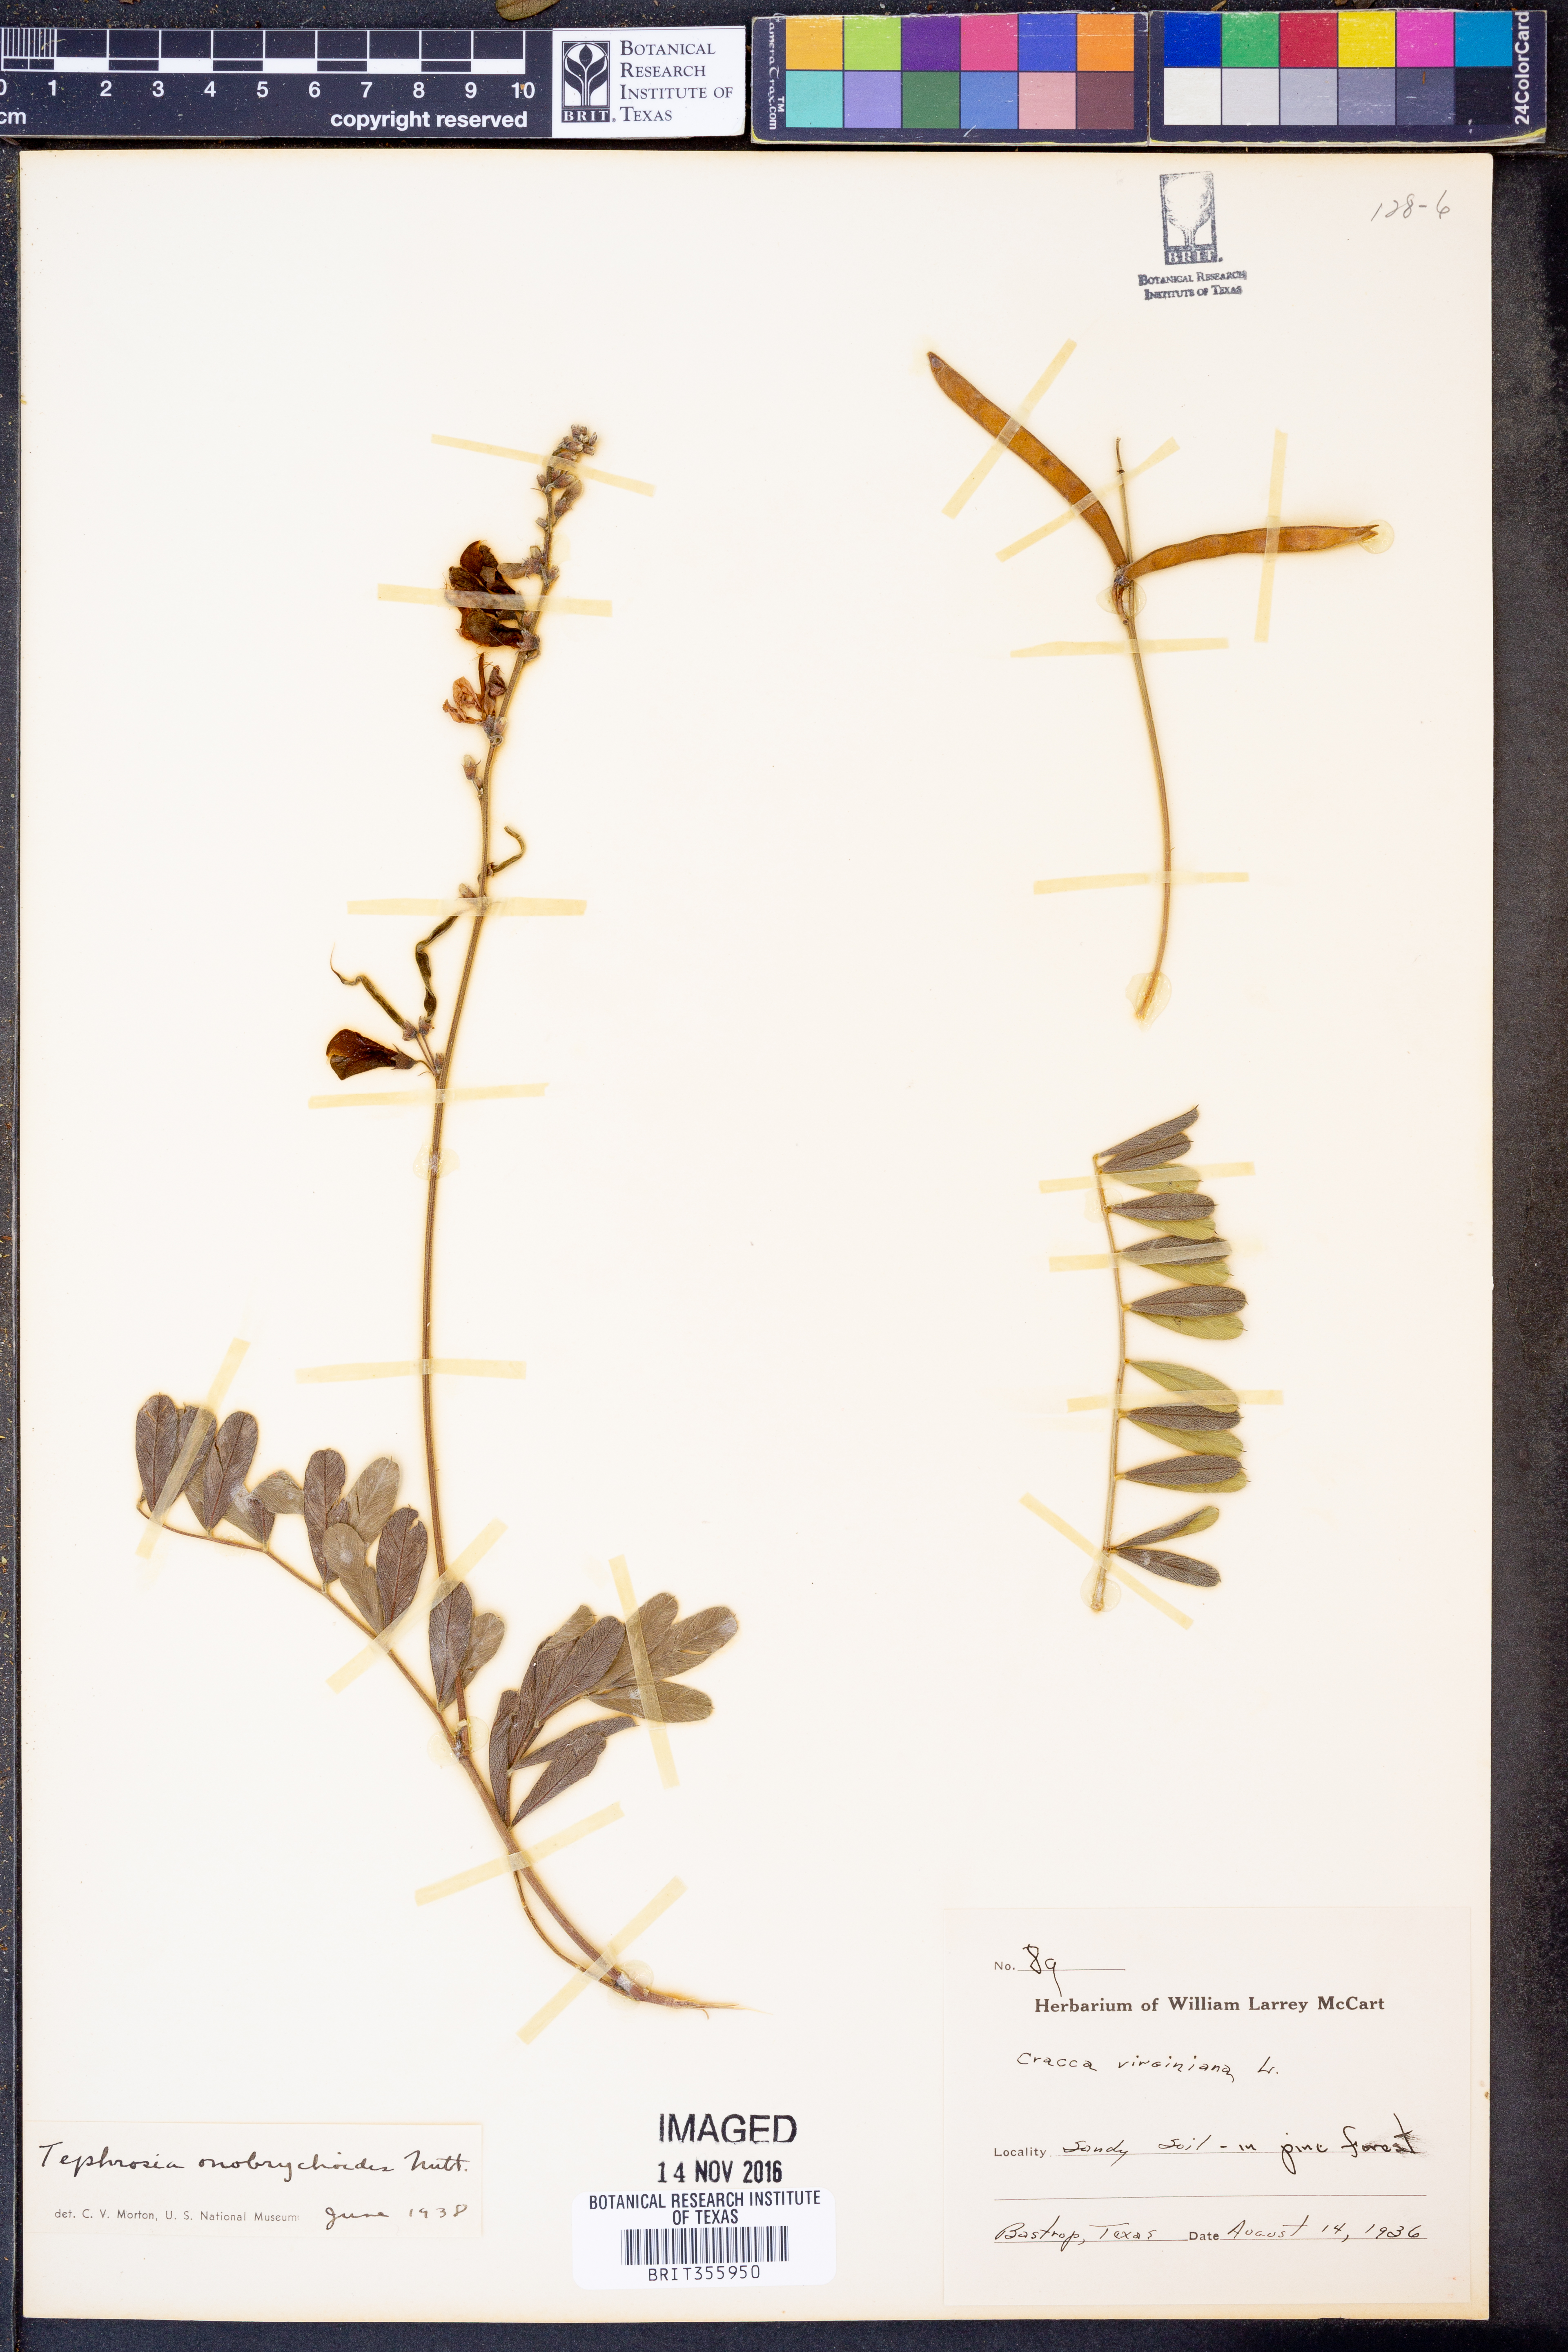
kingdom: Plantae
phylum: Tracheophyta
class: Magnoliopsida
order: Fabales
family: Fabaceae
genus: Tephrosia
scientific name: Tephrosia onobrychoides
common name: Multi-bloom hoary-pea
